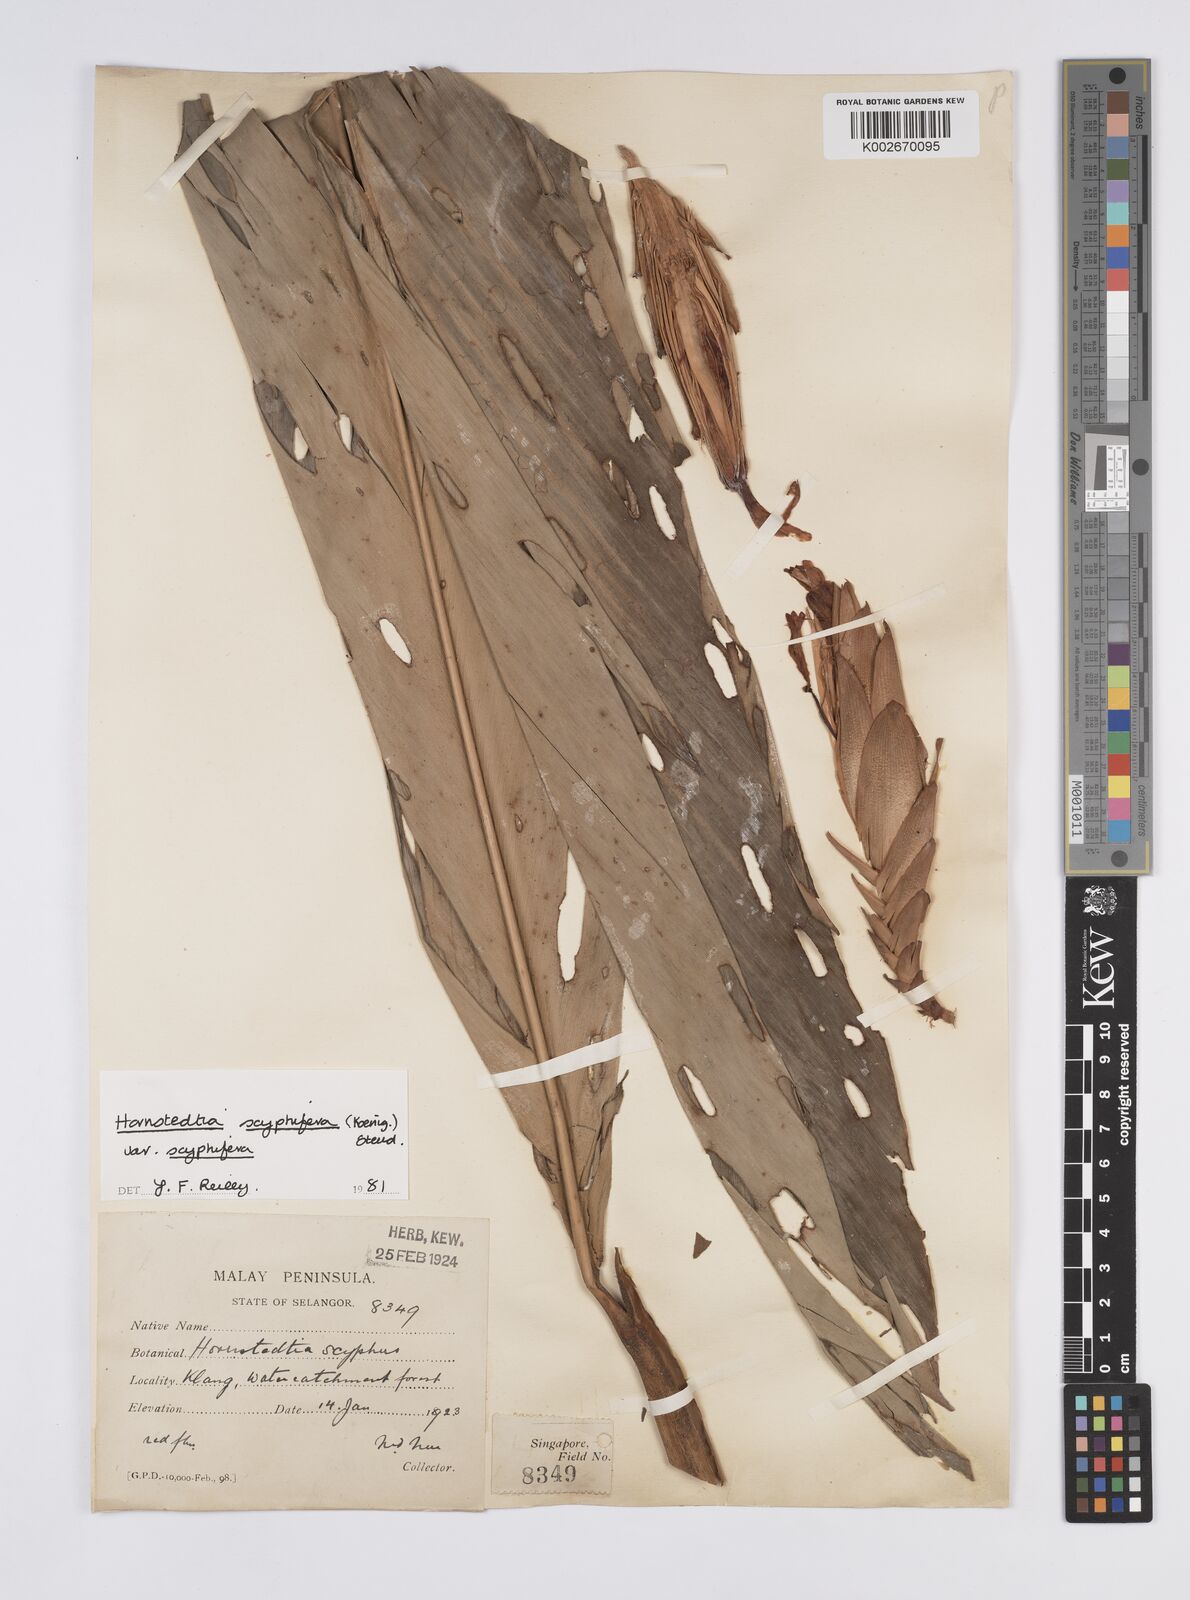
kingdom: Plantae
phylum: Tracheophyta
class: Liliopsida
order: Zingiberales
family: Zingiberaceae
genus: Hornstedtia
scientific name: Hornstedtia scyphifera
